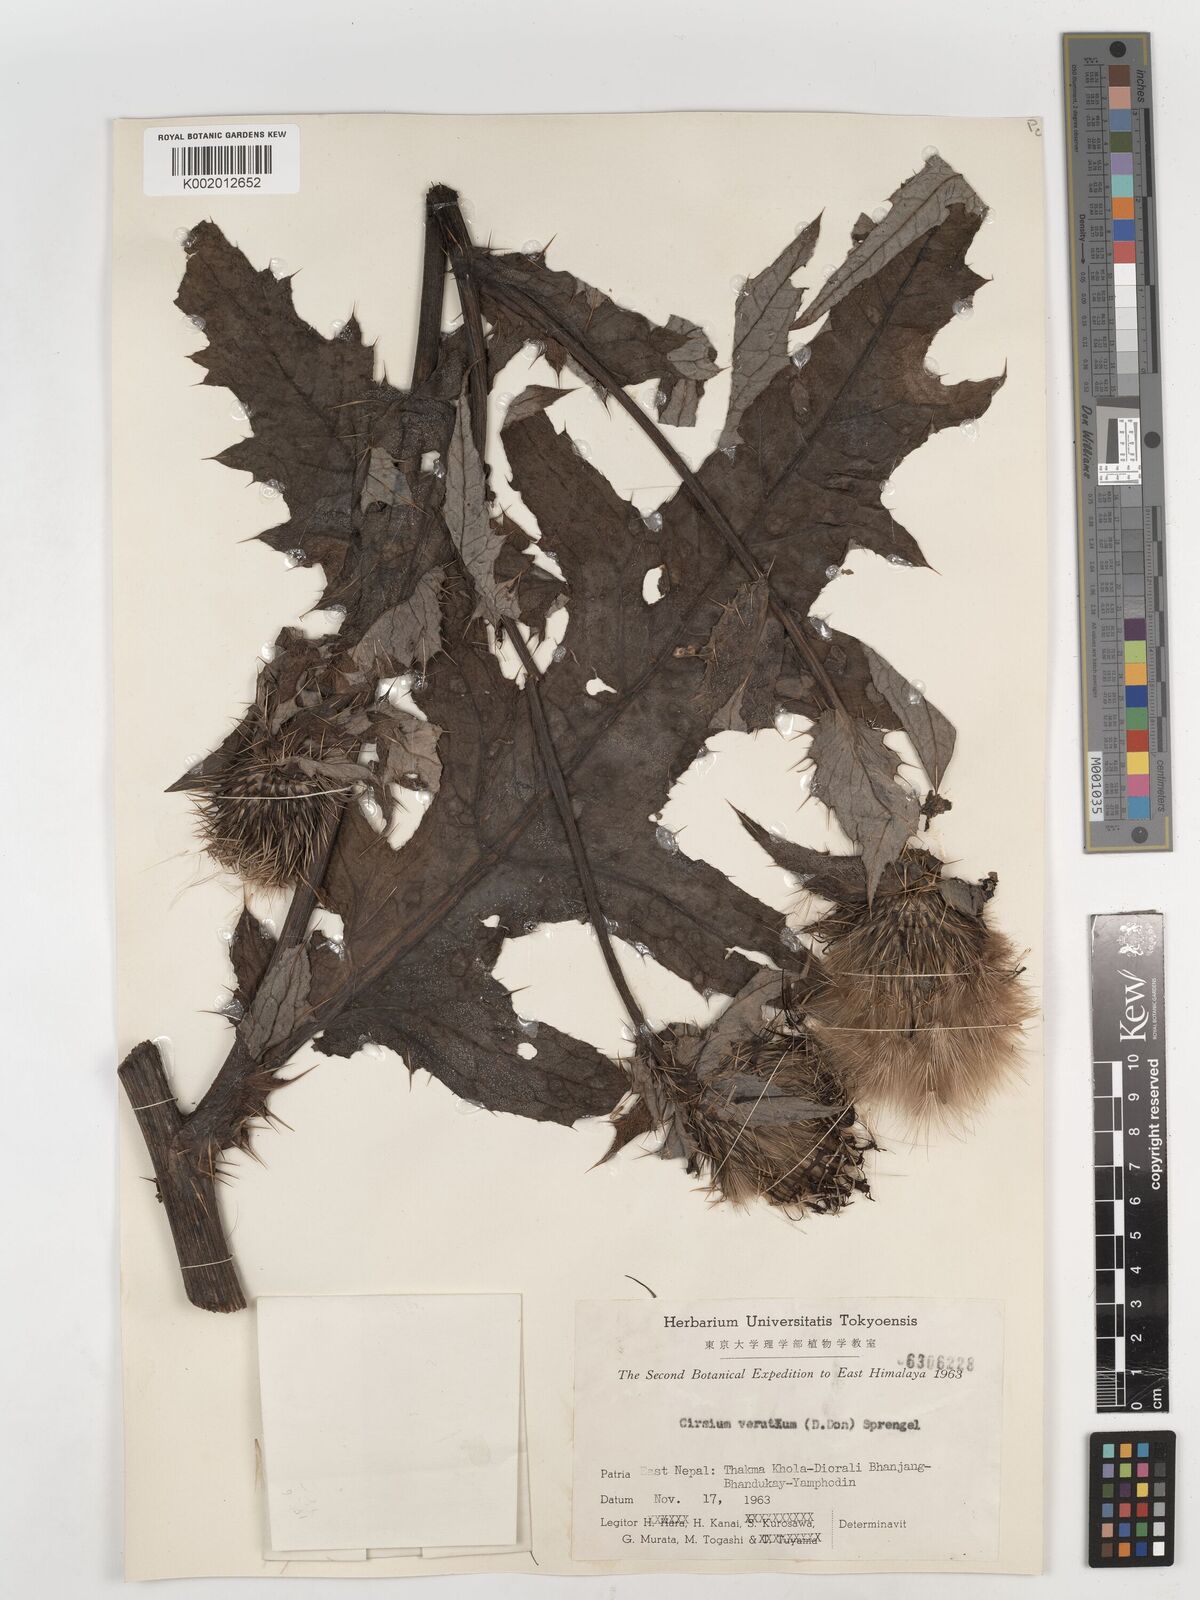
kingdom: Plantae
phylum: Tracheophyta
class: Magnoliopsida
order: Asterales
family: Asteraceae
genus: Lophiolepis
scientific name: Lophiolepis veruta
